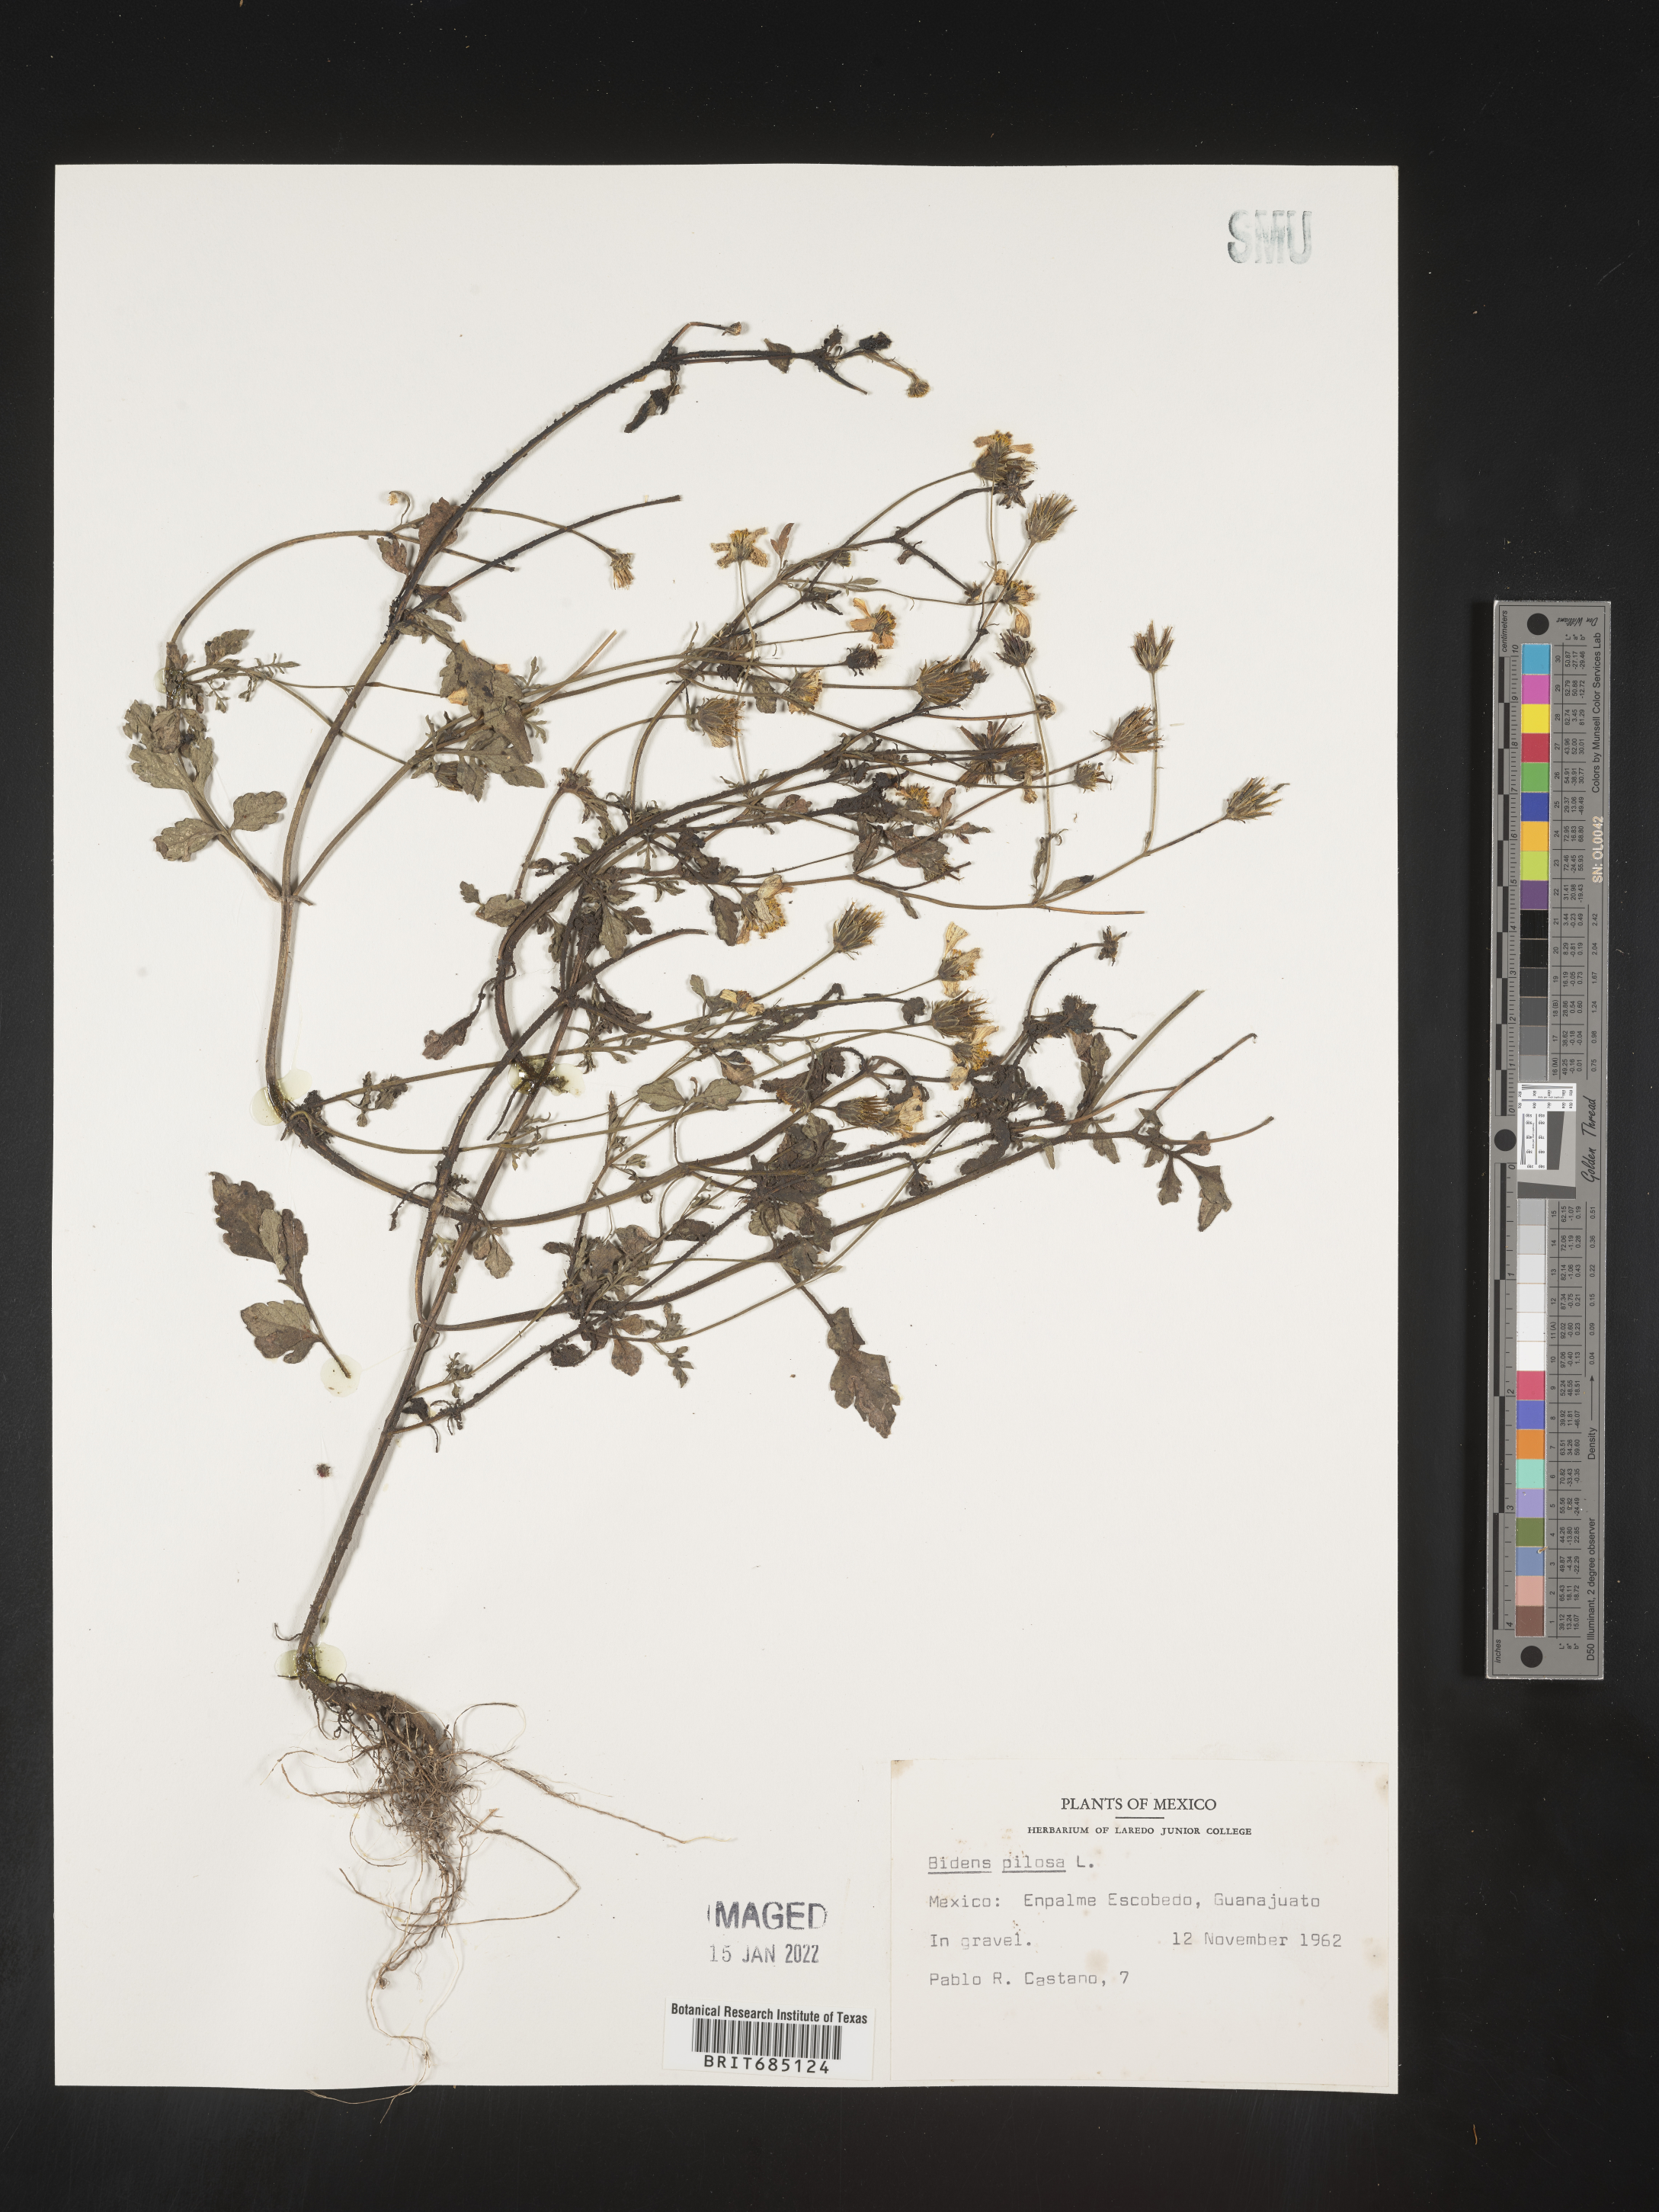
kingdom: Plantae
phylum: Tracheophyta
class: Magnoliopsida
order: Asterales
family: Asteraceae
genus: Bidens
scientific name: Bidens
